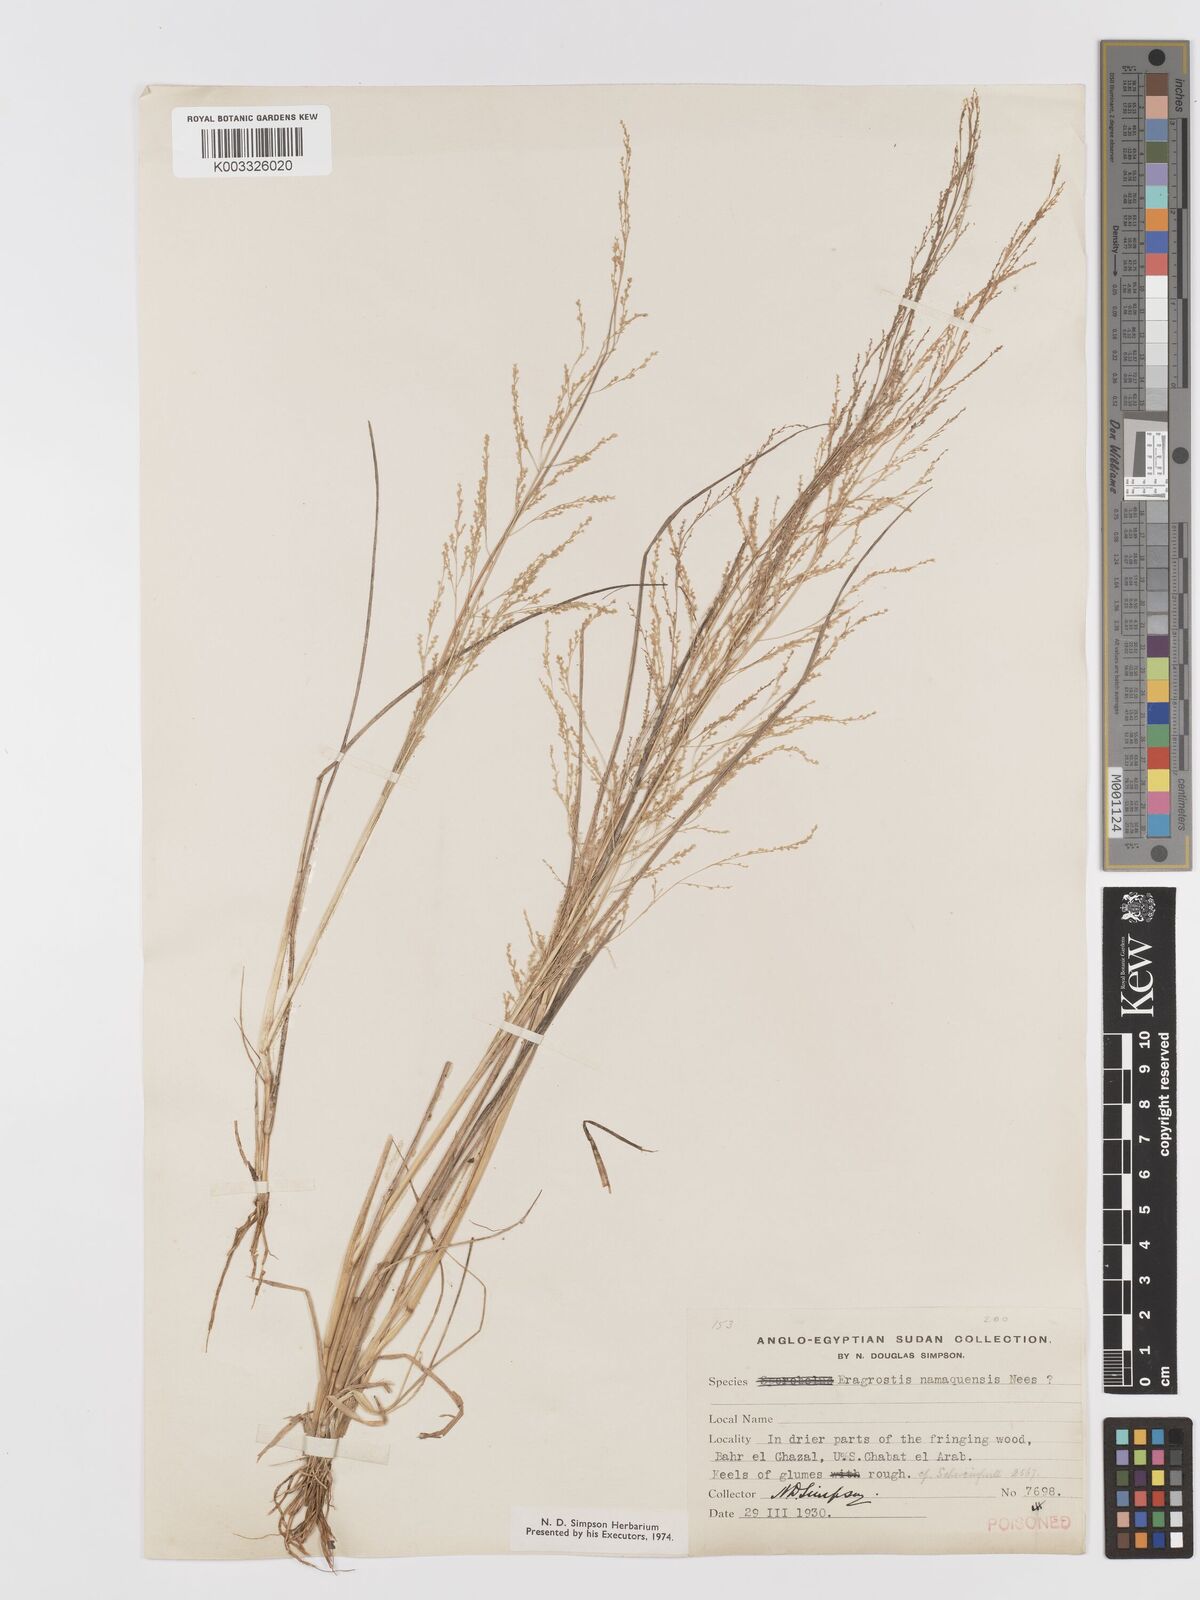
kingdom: Plantae
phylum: Tracheophyta
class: Liliopsida
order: Poales
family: Poaceae
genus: Eragrostis
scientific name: Eragrostis japonica
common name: Pond lovegrass
